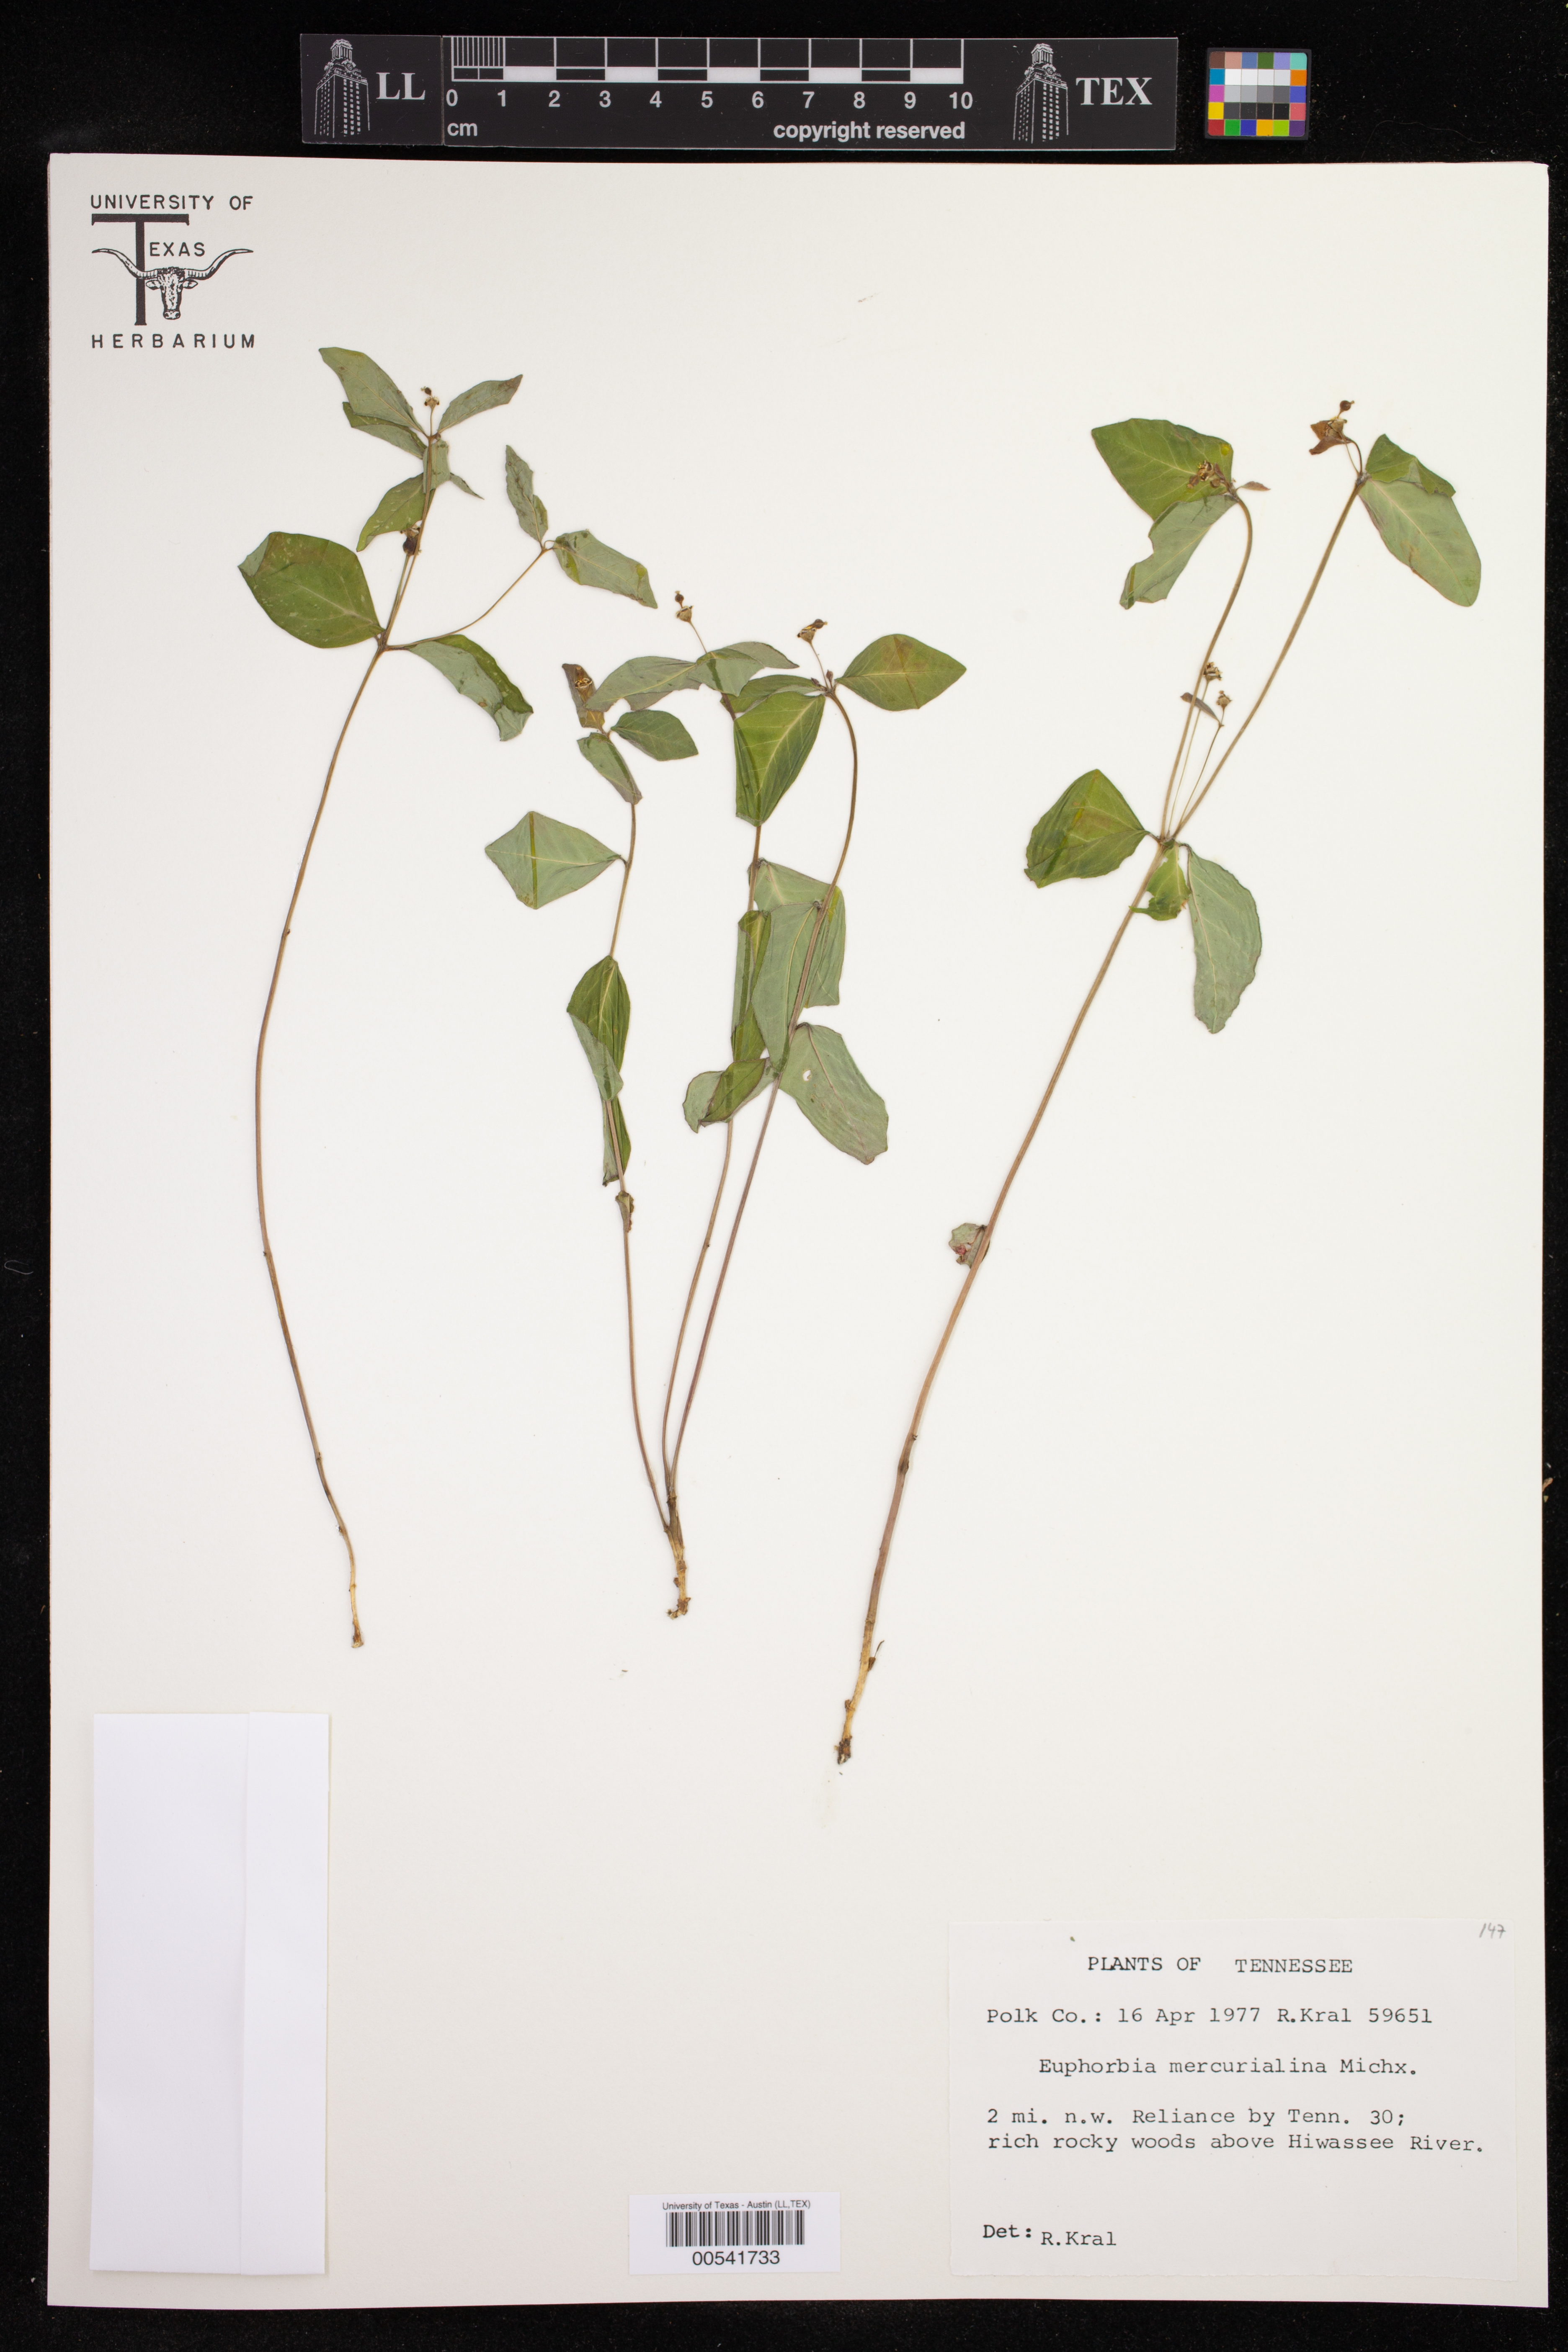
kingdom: Plantae
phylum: Tracheophyta
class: Magnoliopsida
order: Malpighiales
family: Euphorbiaceae
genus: Euphorbia
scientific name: Euphorbia mercurialina
